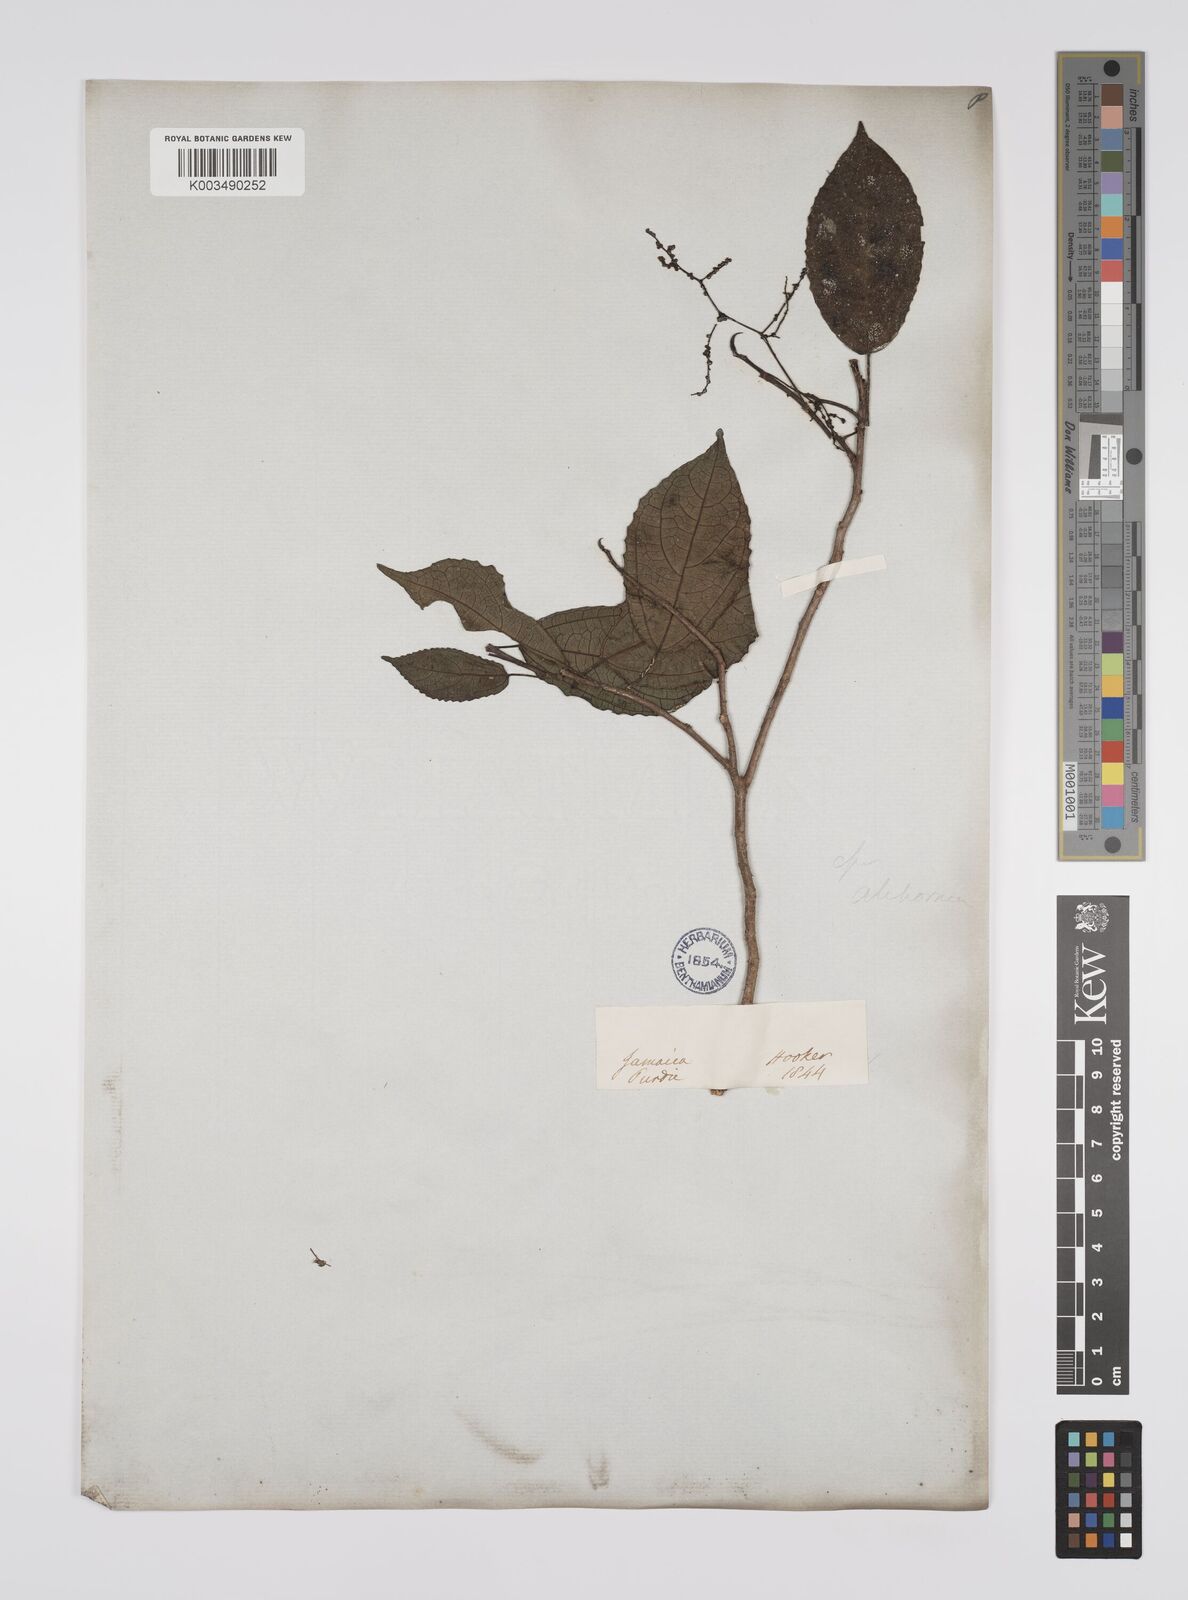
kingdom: Plantae
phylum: Tracheophyta
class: Magnoliopsida
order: Malpighiales
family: Euphorbiaceae
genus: Alchornea
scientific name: Alchornea latifolia
